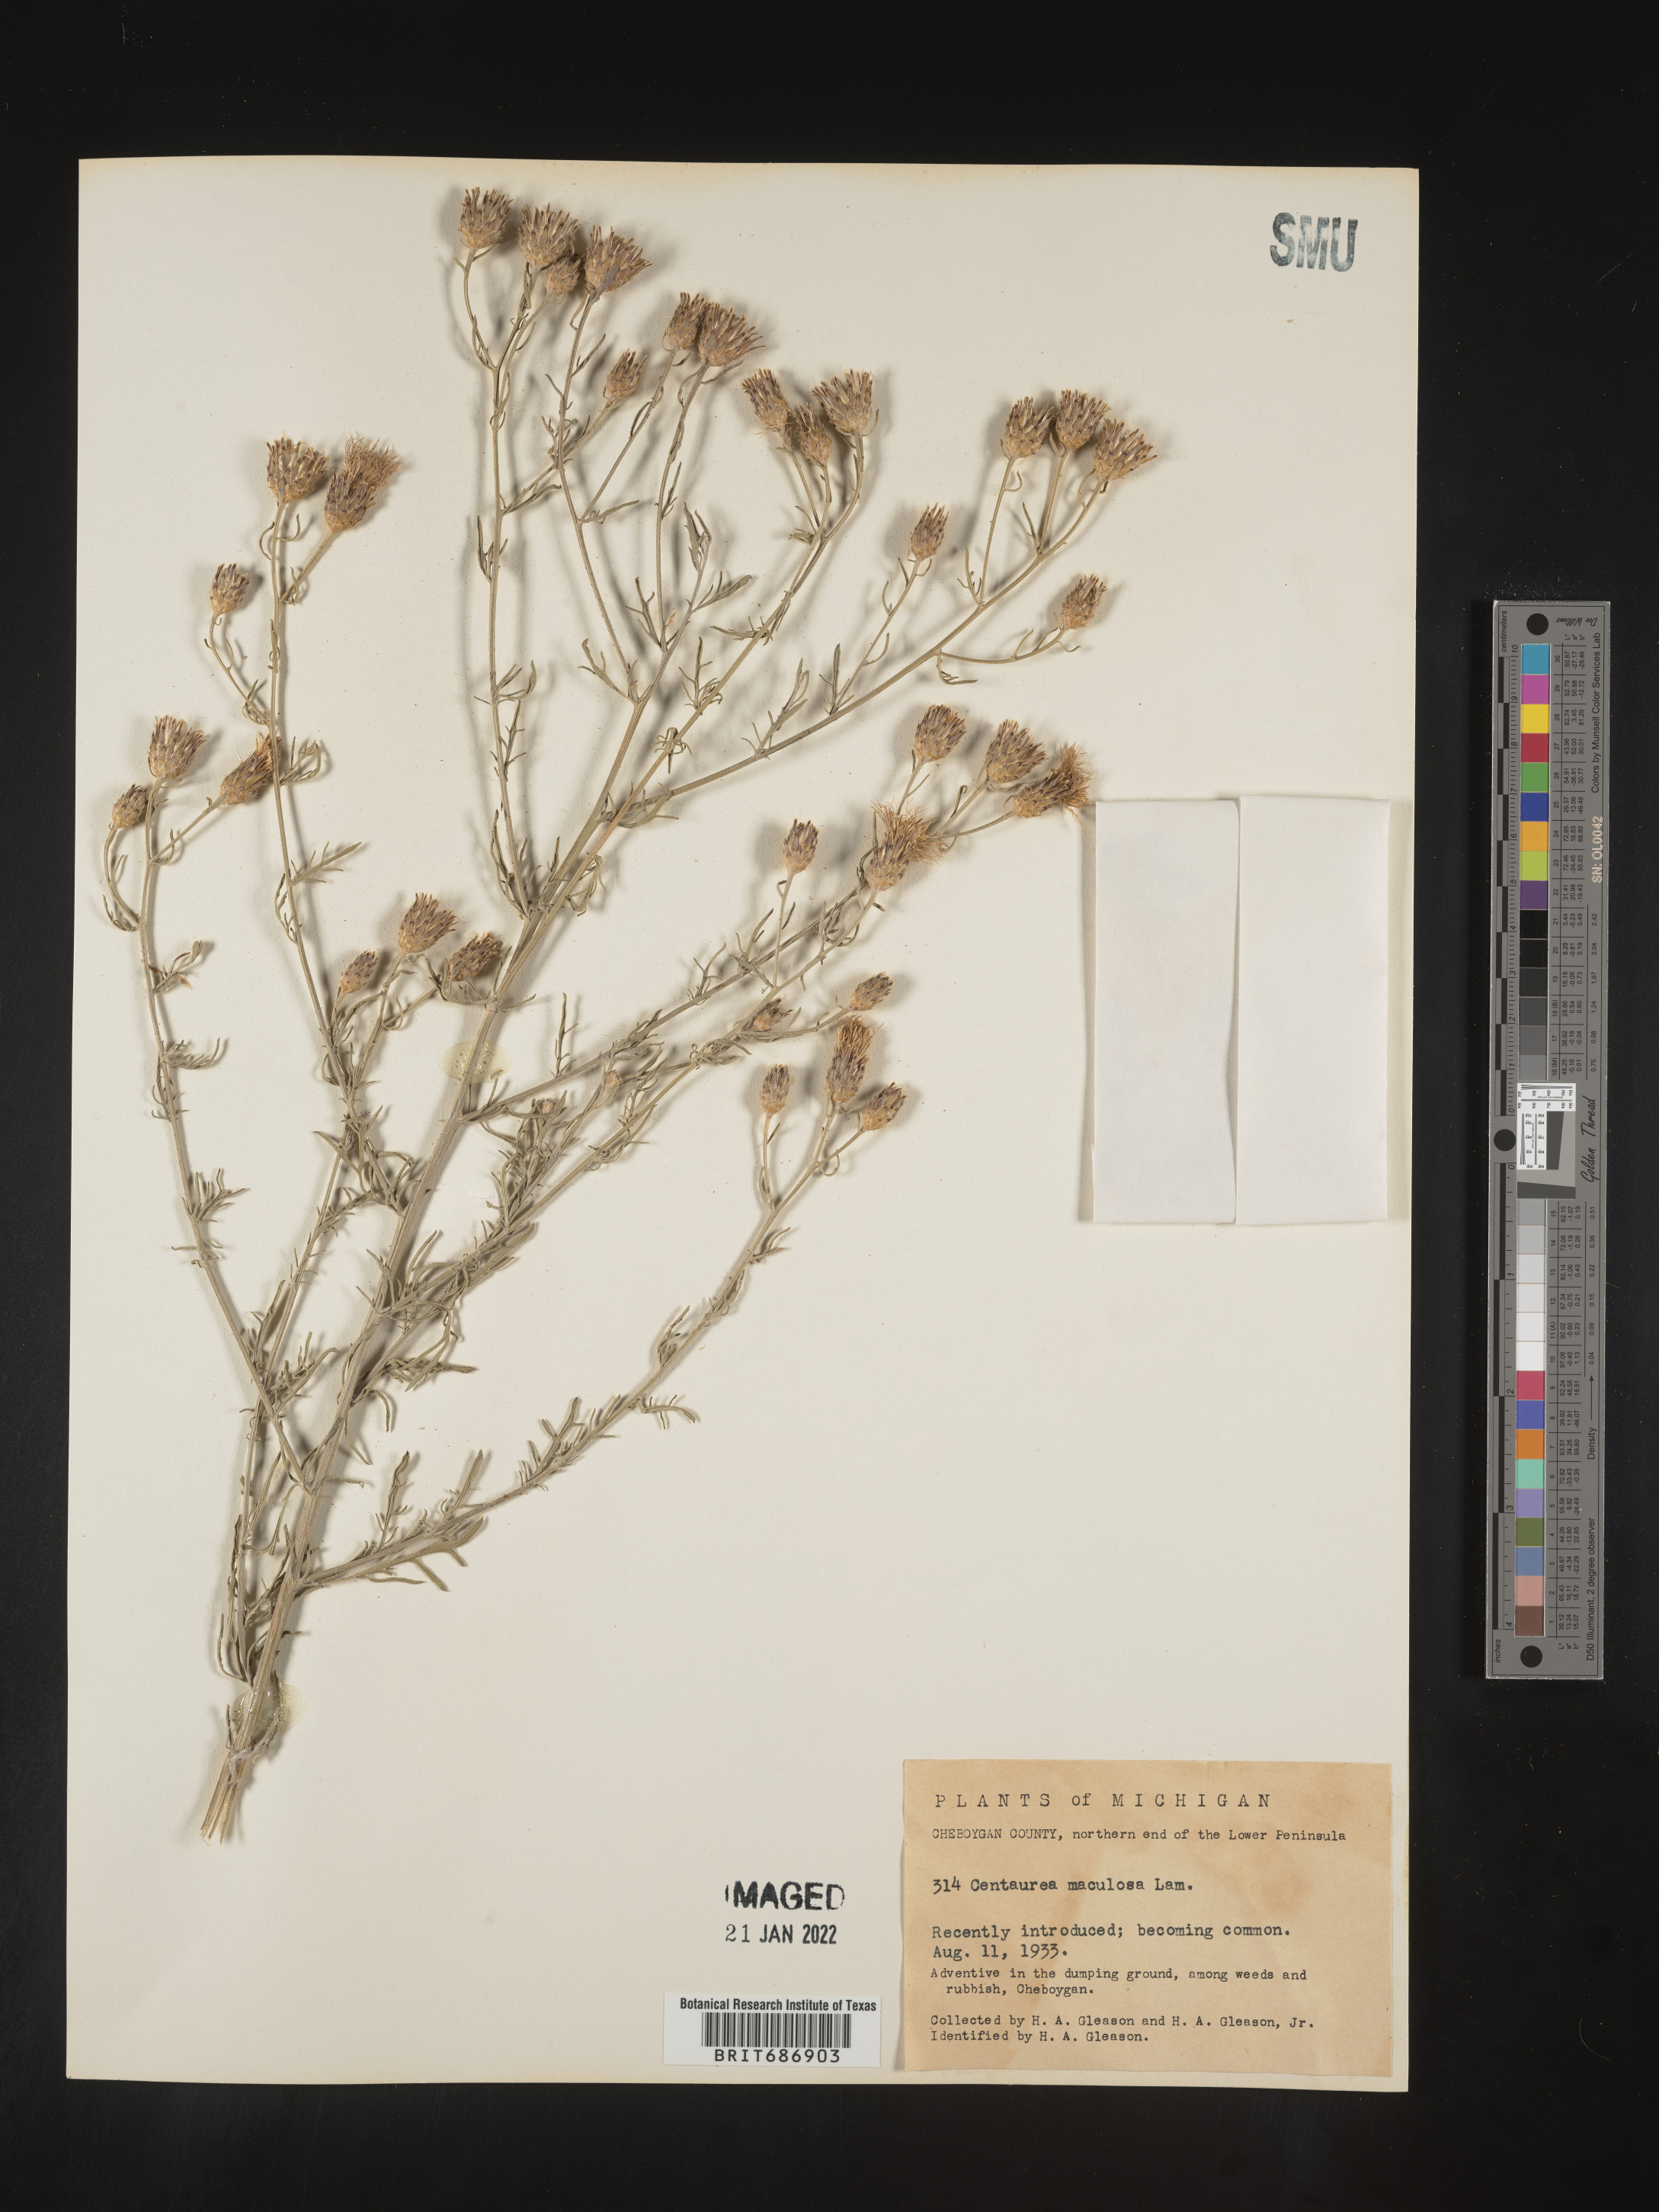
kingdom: Plantae
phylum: Tracheophyta
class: Magnoliopsida
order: Asterales
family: Asteraceae
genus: Centaurea
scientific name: Centaurea stoebe
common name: Spotted knapweed
